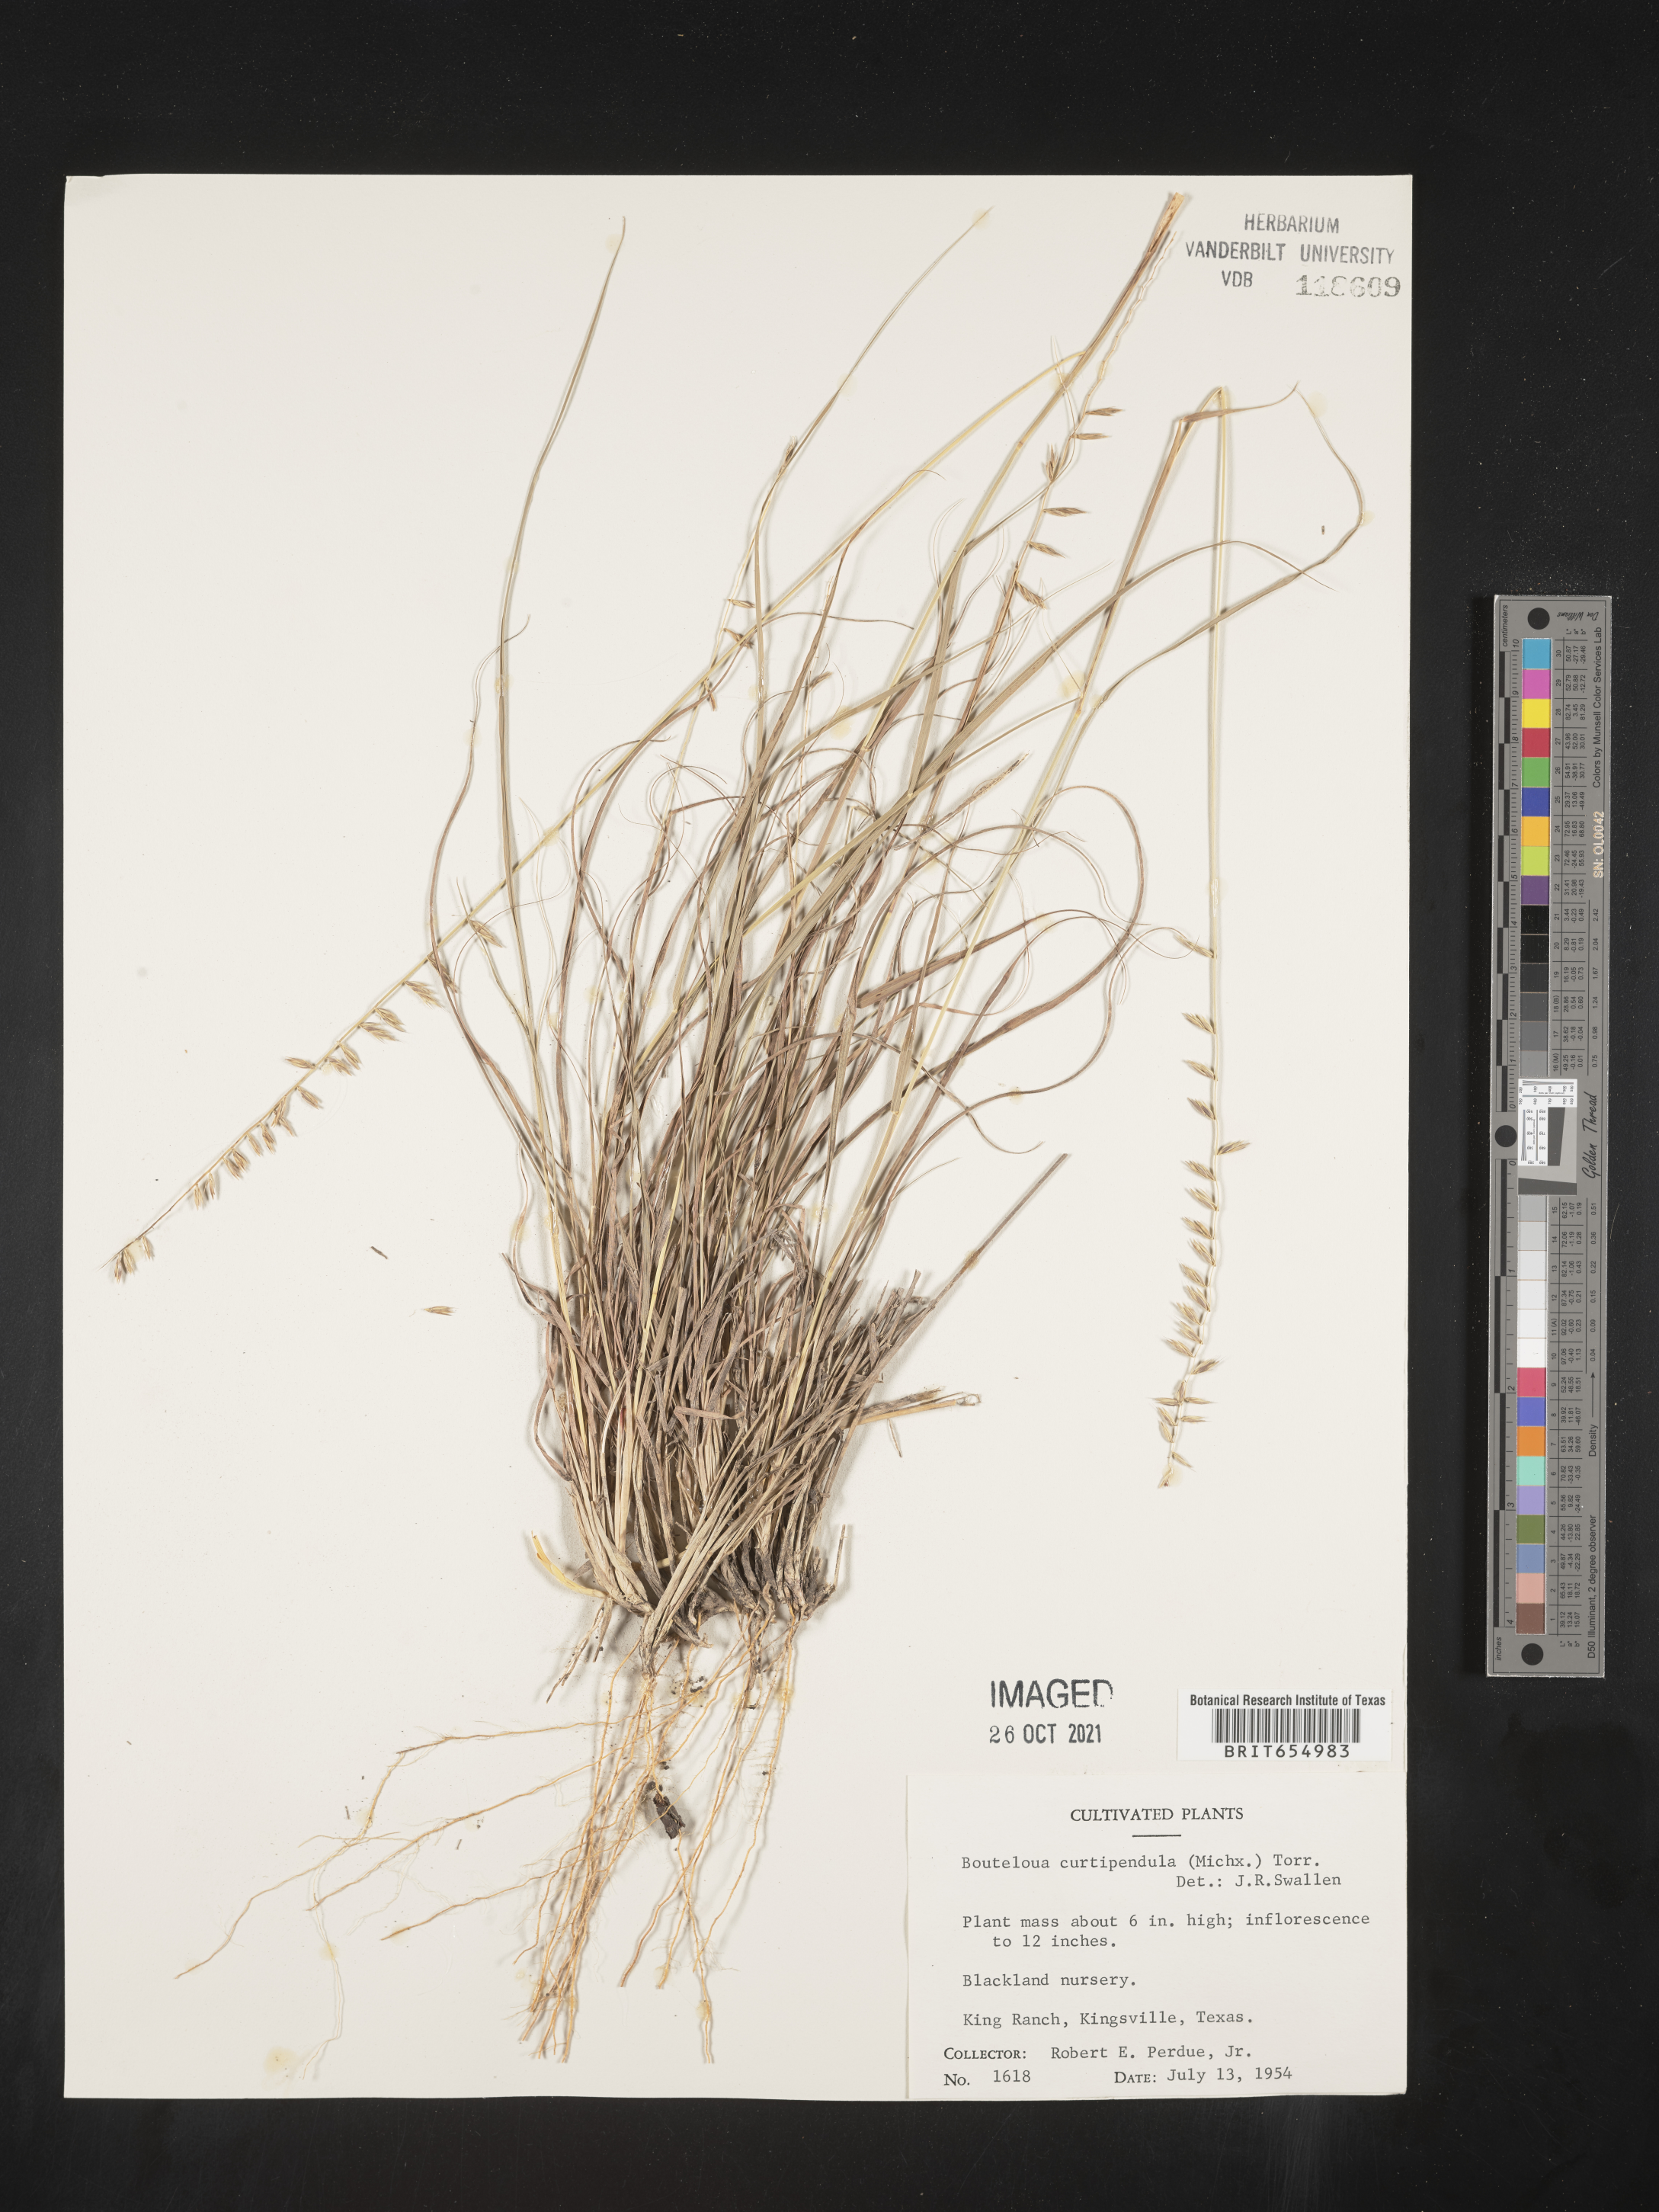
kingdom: Plantae
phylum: Tracheophyta
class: Liliopsida
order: Poales
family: Poaceae
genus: Bouteloua
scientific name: Bouteloua
